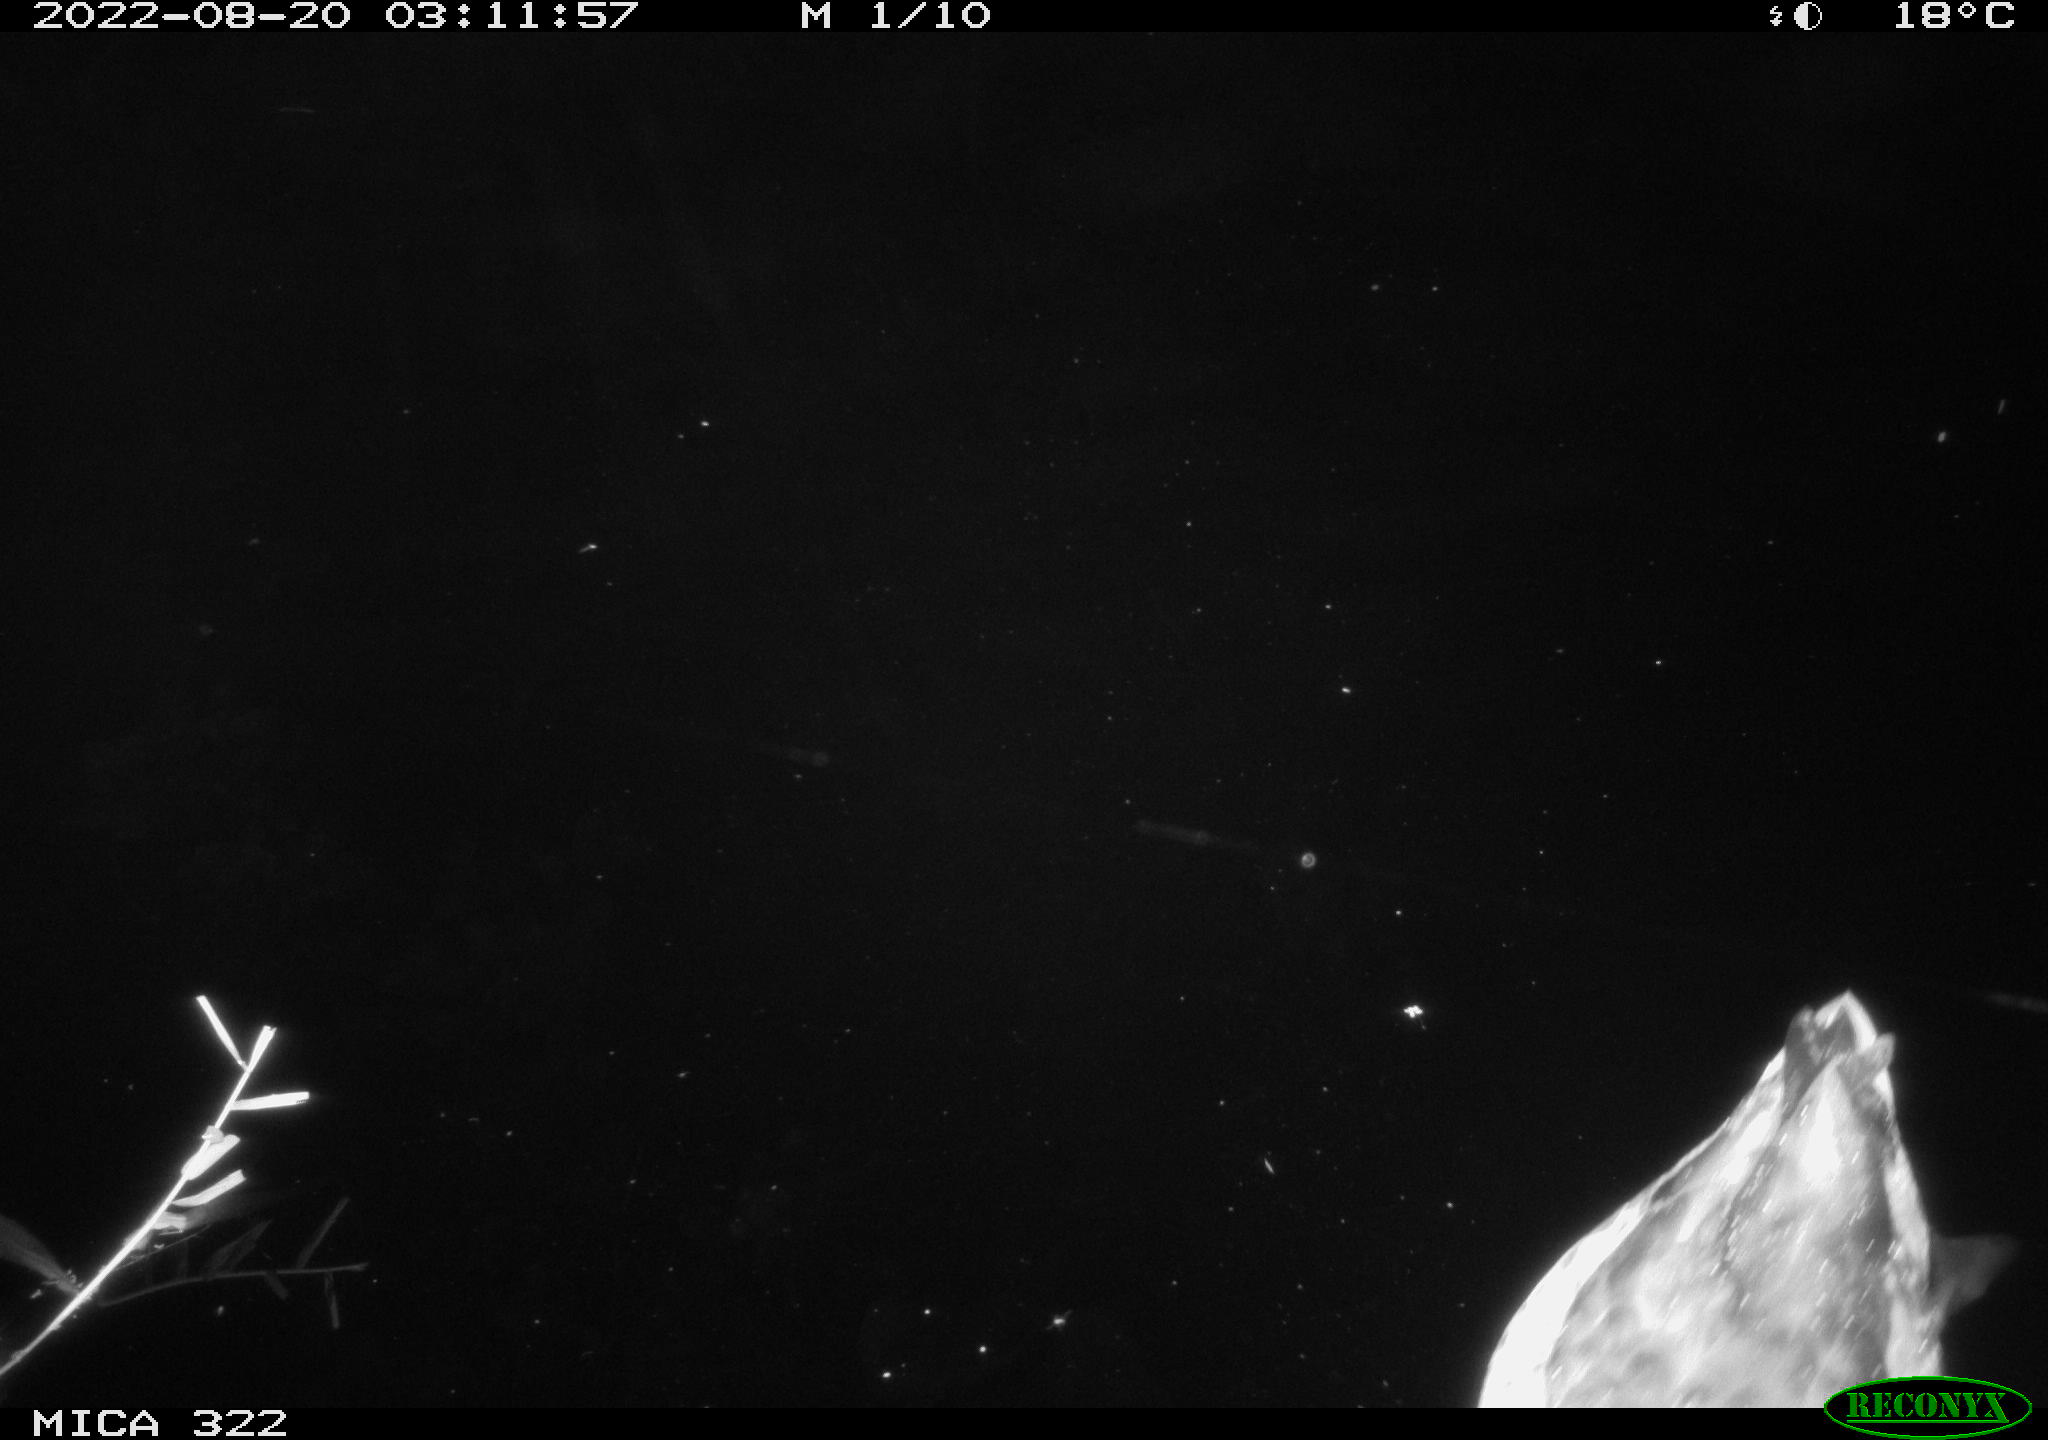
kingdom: Animalia
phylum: Chordata
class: Aves
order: Anseriformes
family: Anatidae
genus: Anas
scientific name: Anas platyrhynchos
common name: Mallard
